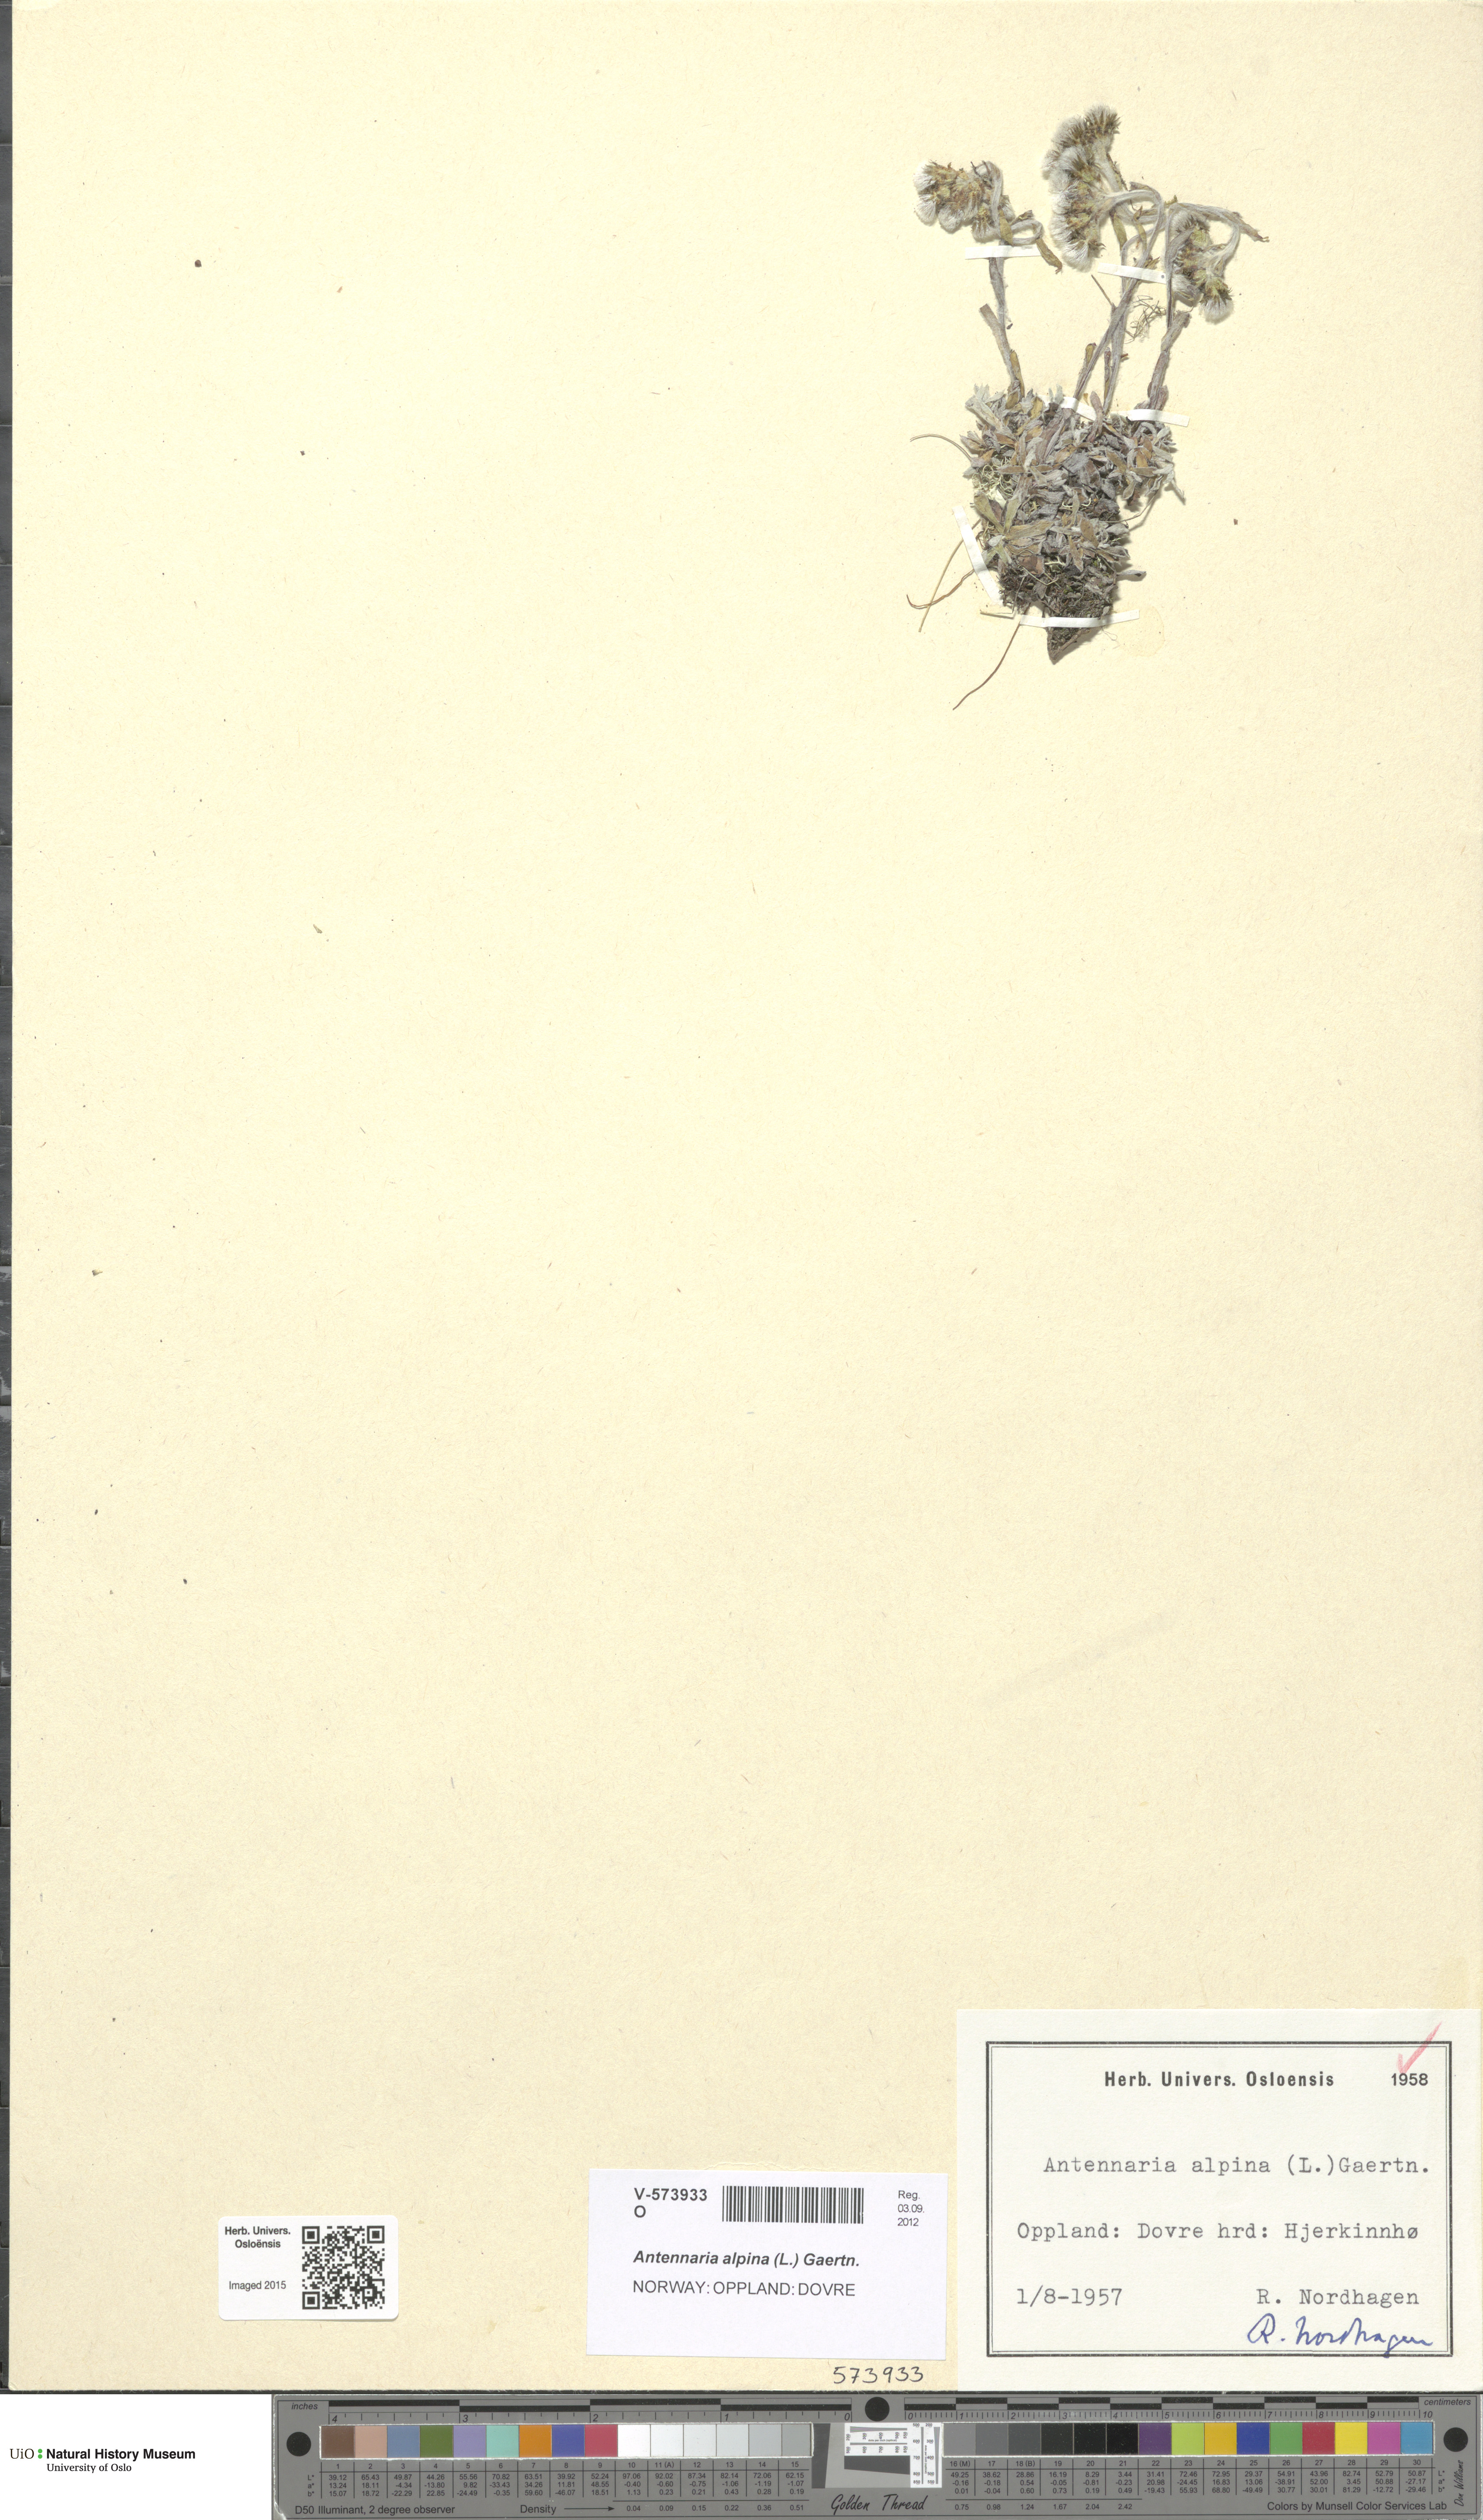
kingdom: Plantae
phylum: Tracheophyta
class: Magnoliopsida
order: Asterales
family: Asteraceae
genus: Antennaria
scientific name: Antennaria alpina
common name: Alpine pussytoes
